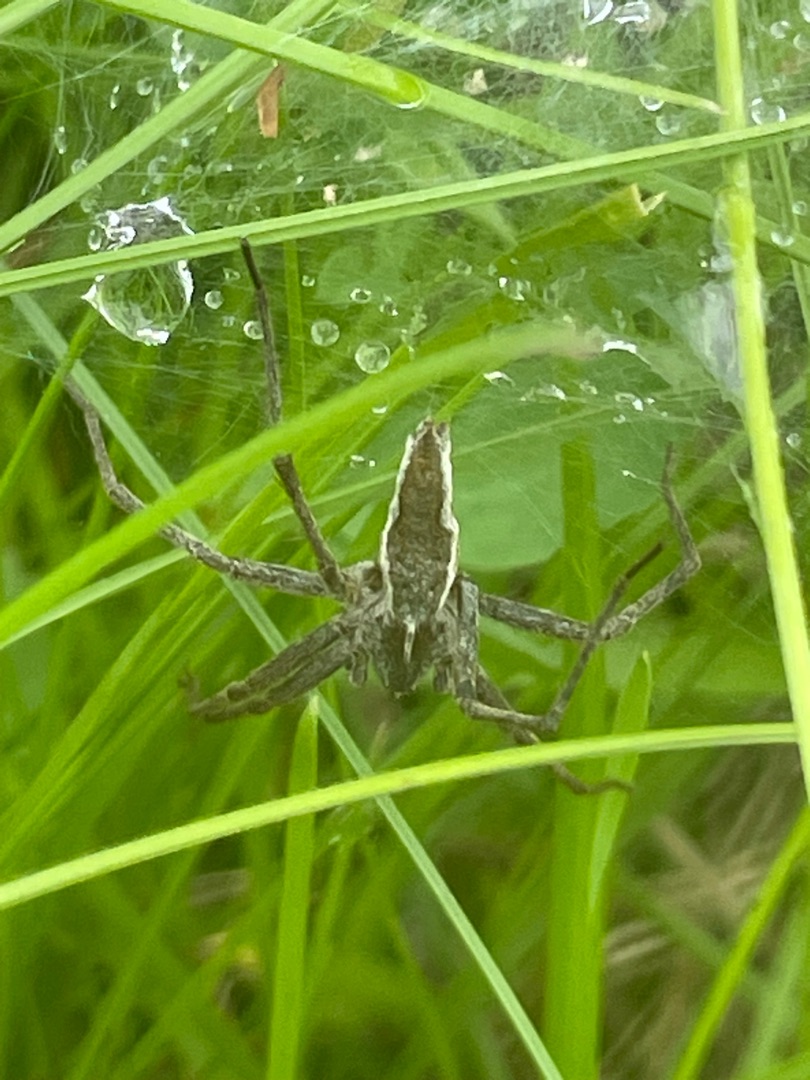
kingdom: Animalia
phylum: Arthropoda
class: Arachnida
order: Araneae
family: Pisauridae
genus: Pisaura
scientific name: Pisaura mirabilis
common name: Almindelig rovedderkop
